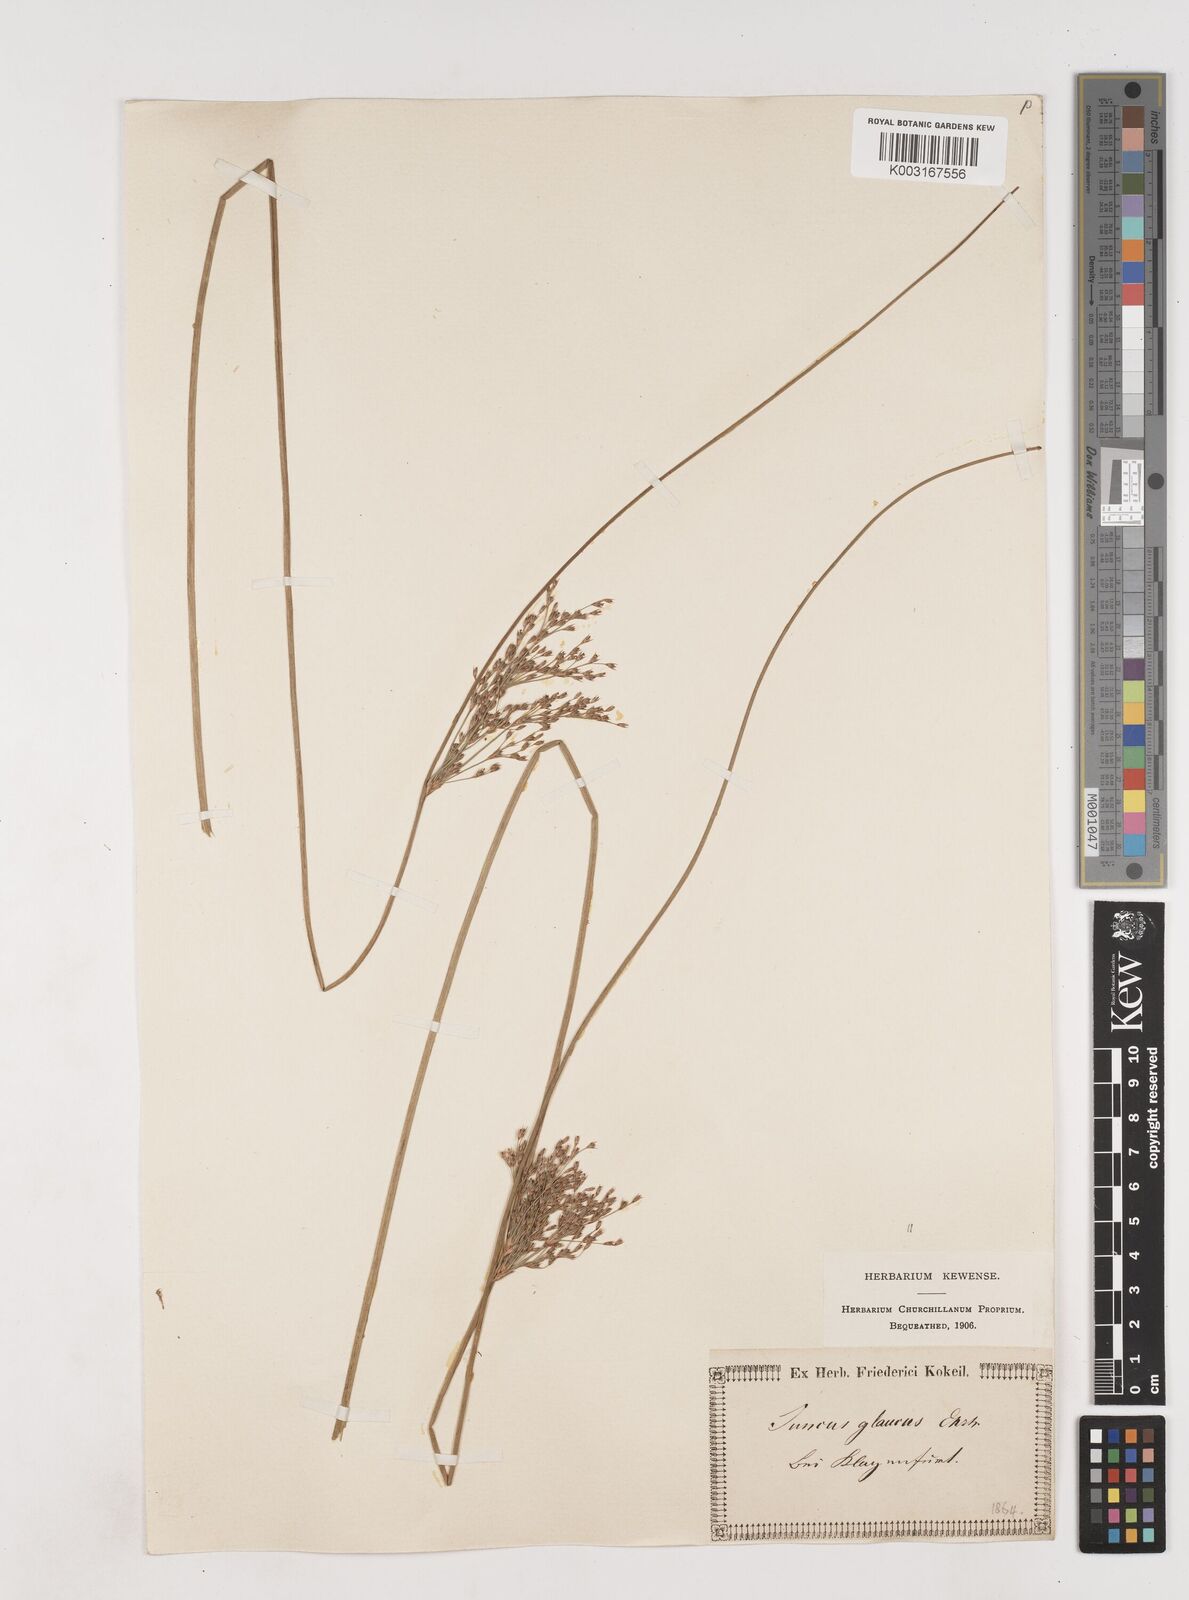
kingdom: Plantae
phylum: Tracheophyta
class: Liliopsida
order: Poales
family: Juncaceae
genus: Juncus
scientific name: Juncus inflexus
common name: Hard rush
